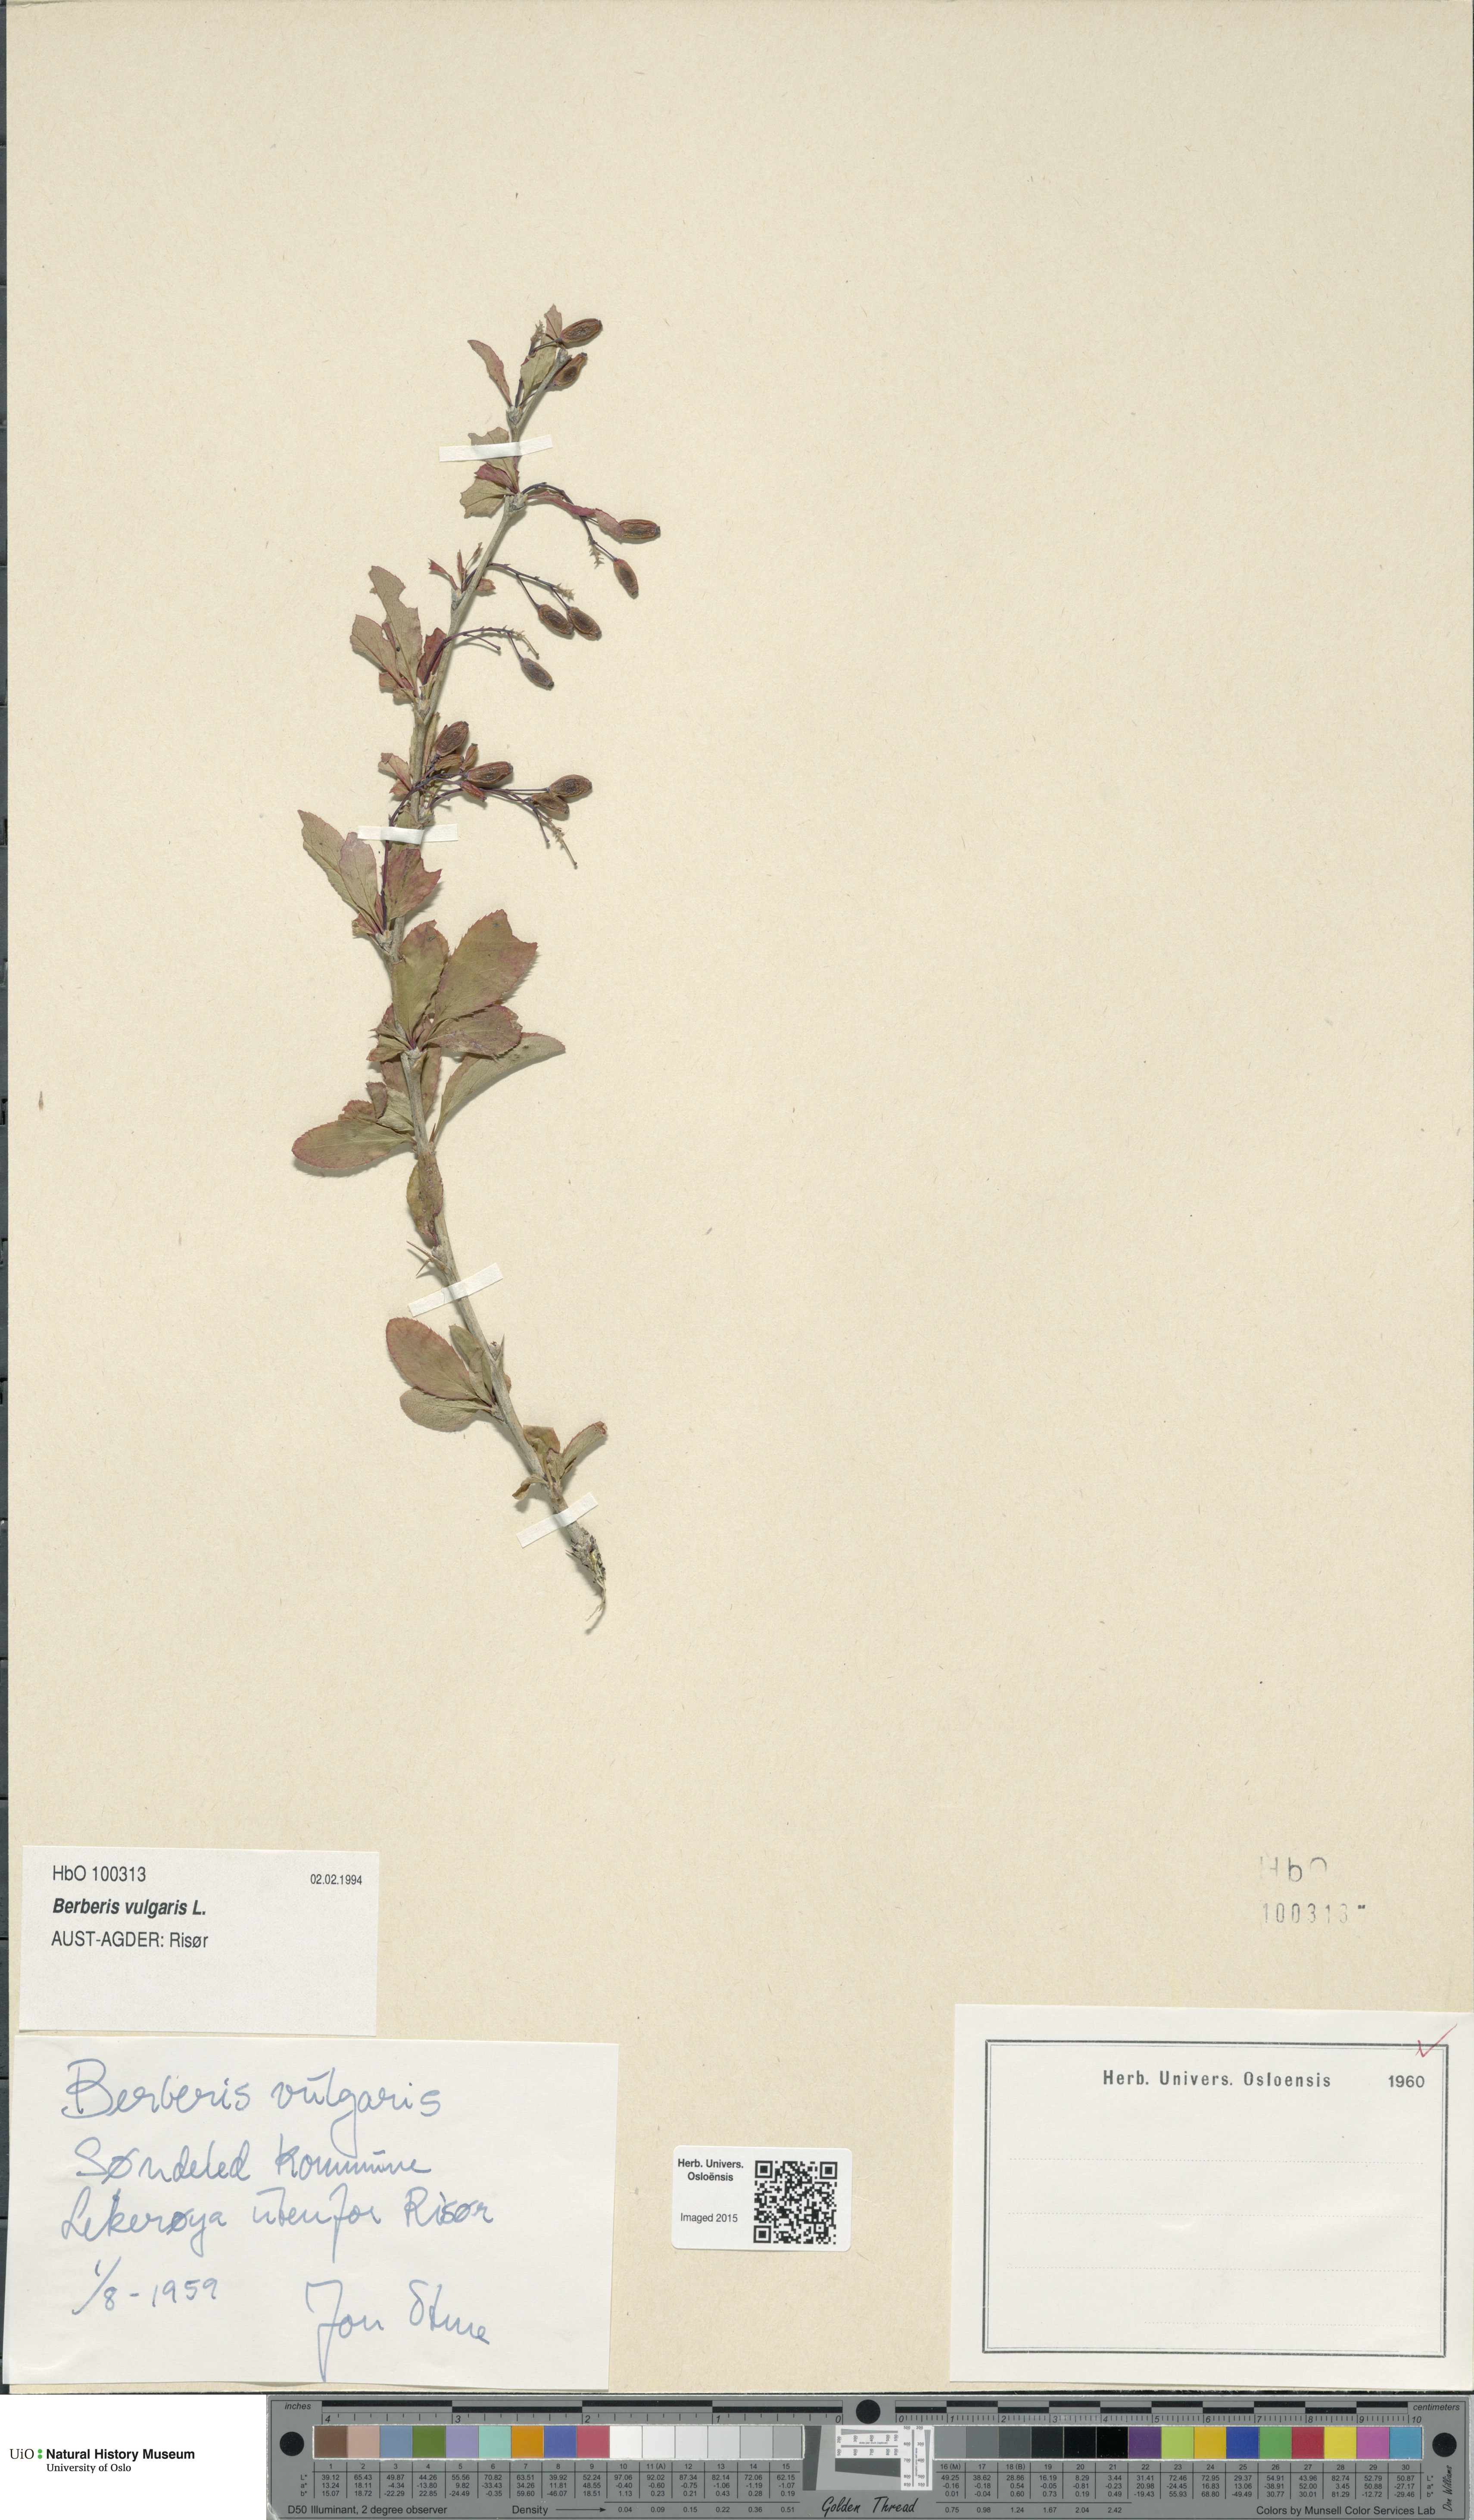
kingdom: Plantae
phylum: Tracheophyta
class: Magnoliopsida
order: Ranunculales
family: Berberidaceae
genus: Berberis
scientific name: Berberis vulgaris
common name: Barberry
